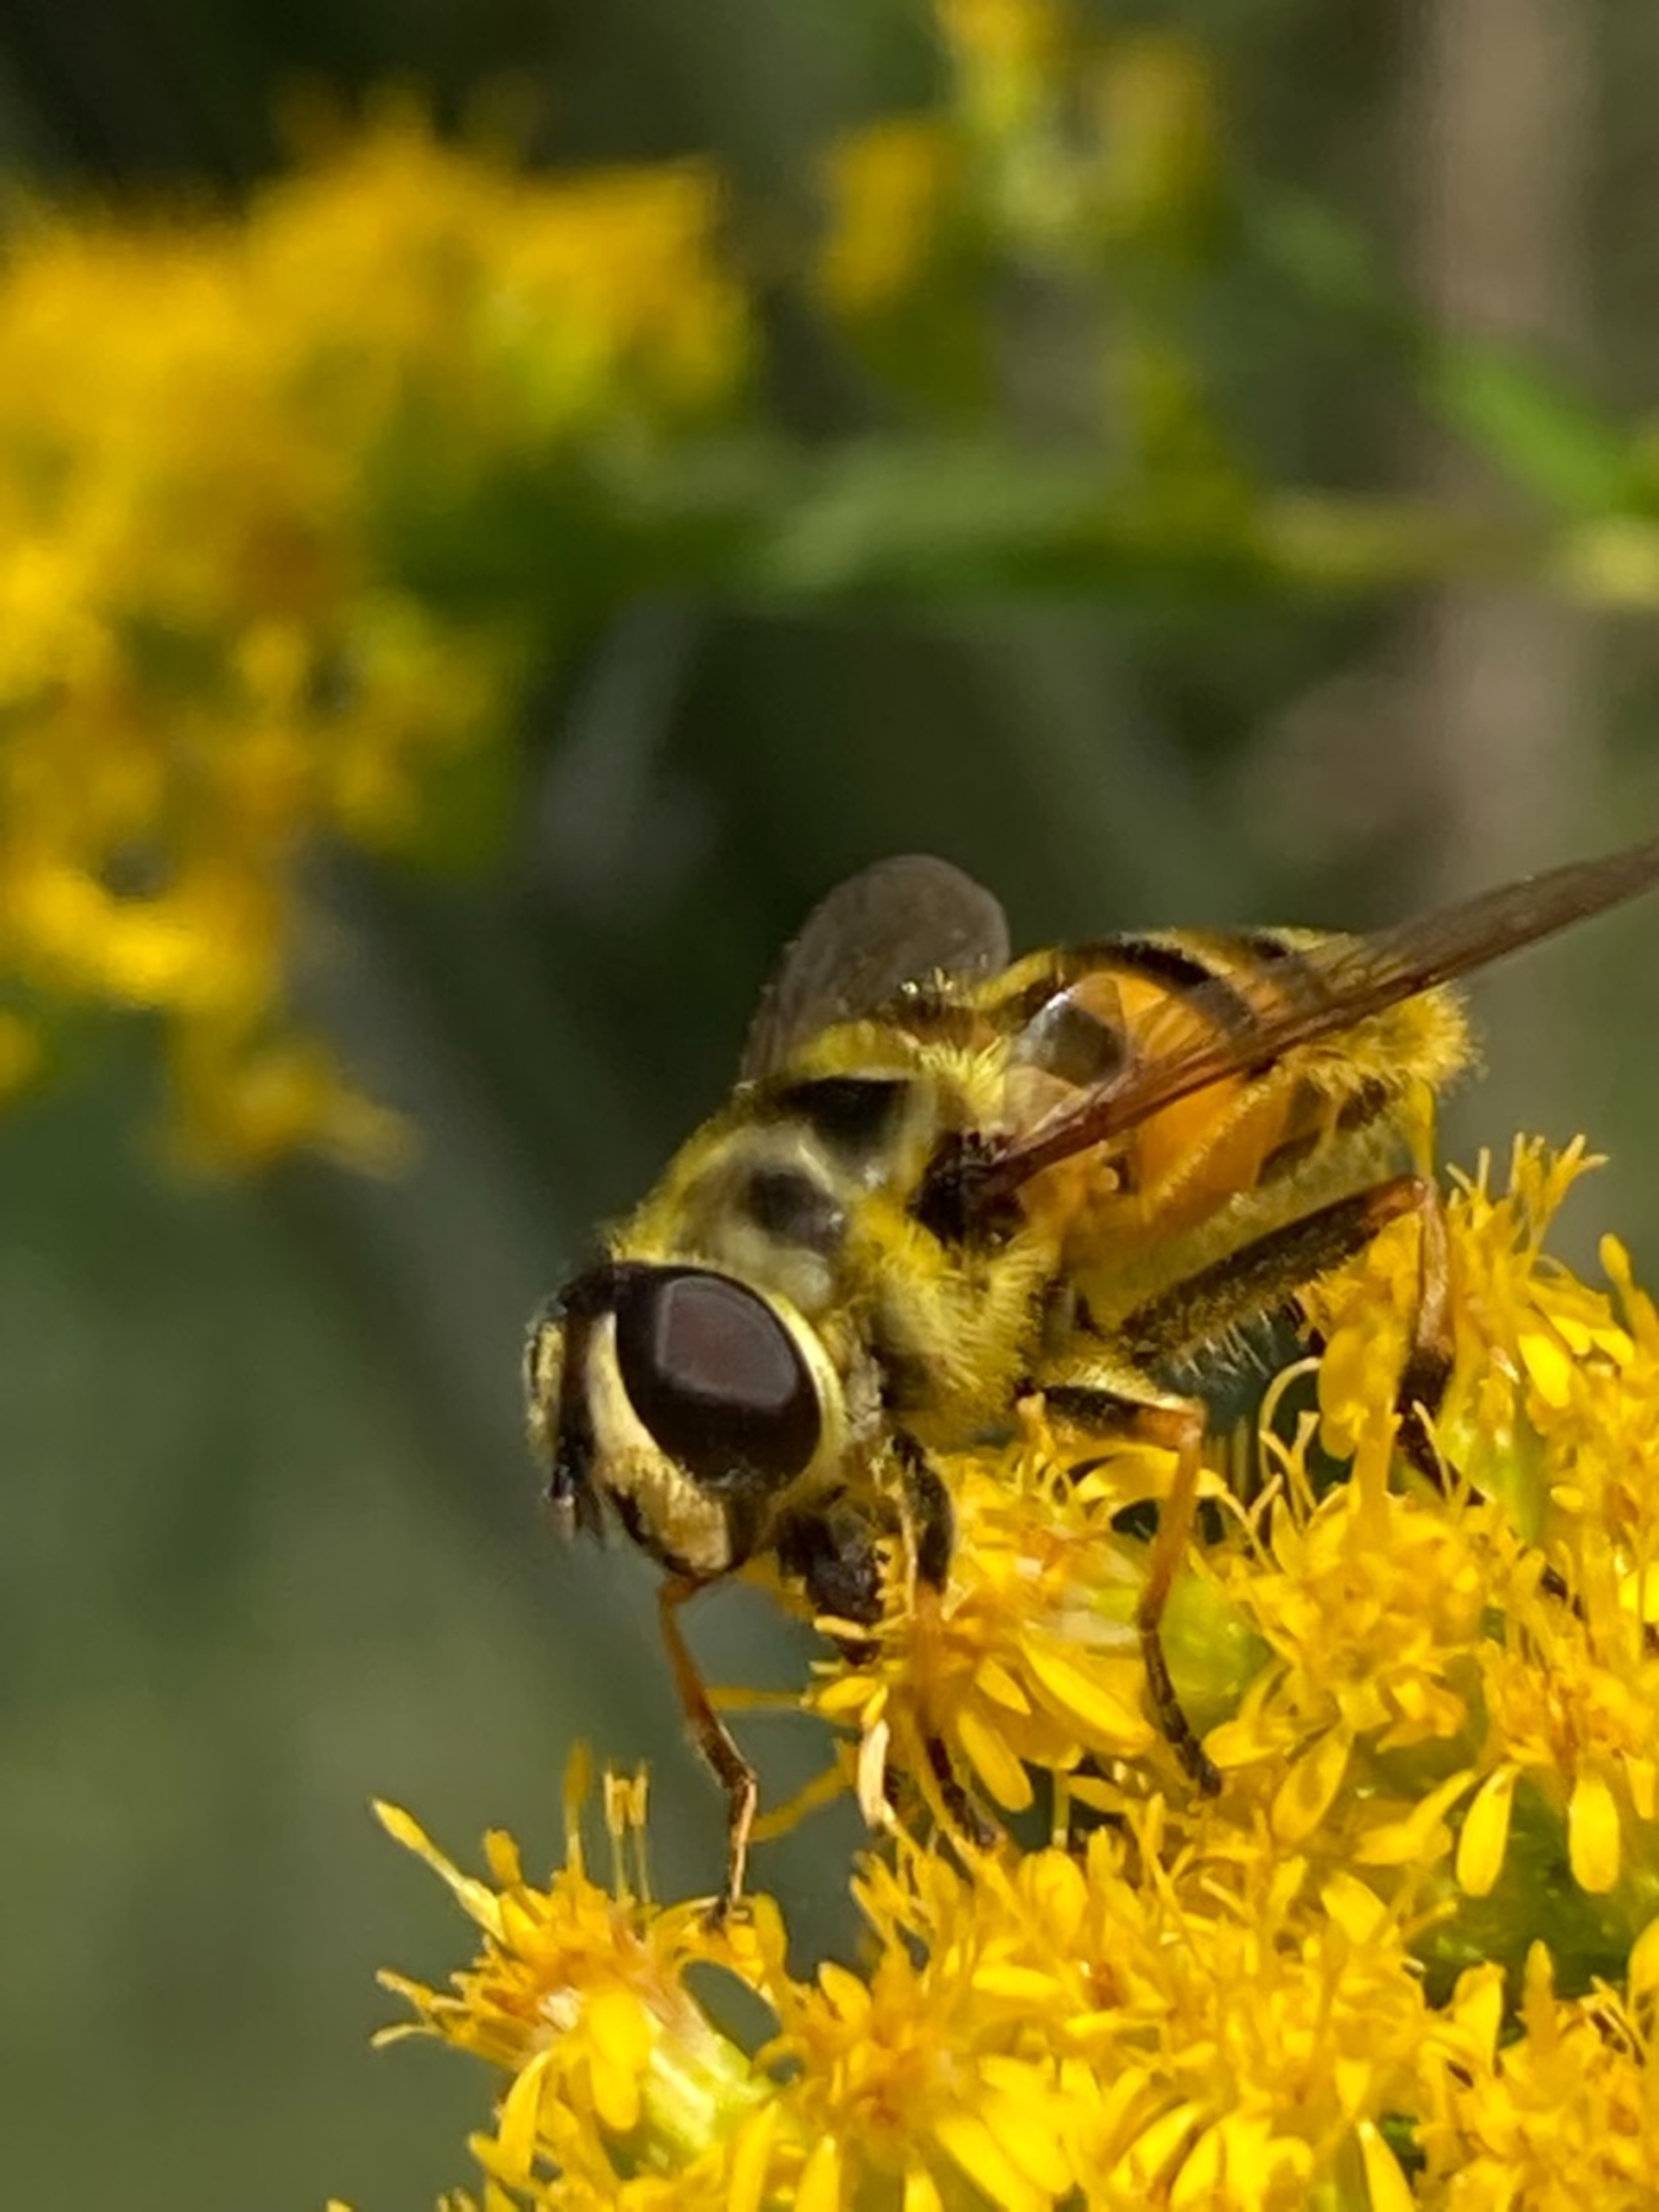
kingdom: Animalia
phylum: Arthropoda
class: Insecta
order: Diptera
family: Syrphidae
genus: Myathropa
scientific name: Myathropa florea
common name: Dødningehoved-svirreflue
